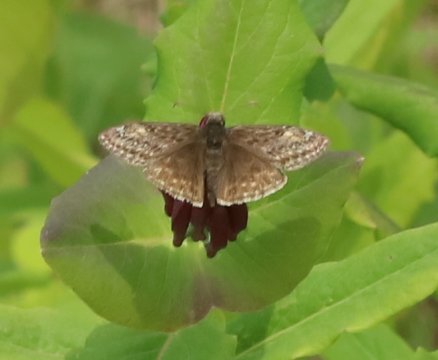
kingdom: Animalia
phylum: Arthropoda
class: Insecta
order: Lepidoptera
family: Hesperiidae
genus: Gesta
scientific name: Gesta
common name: Juvenal's Duskywing
